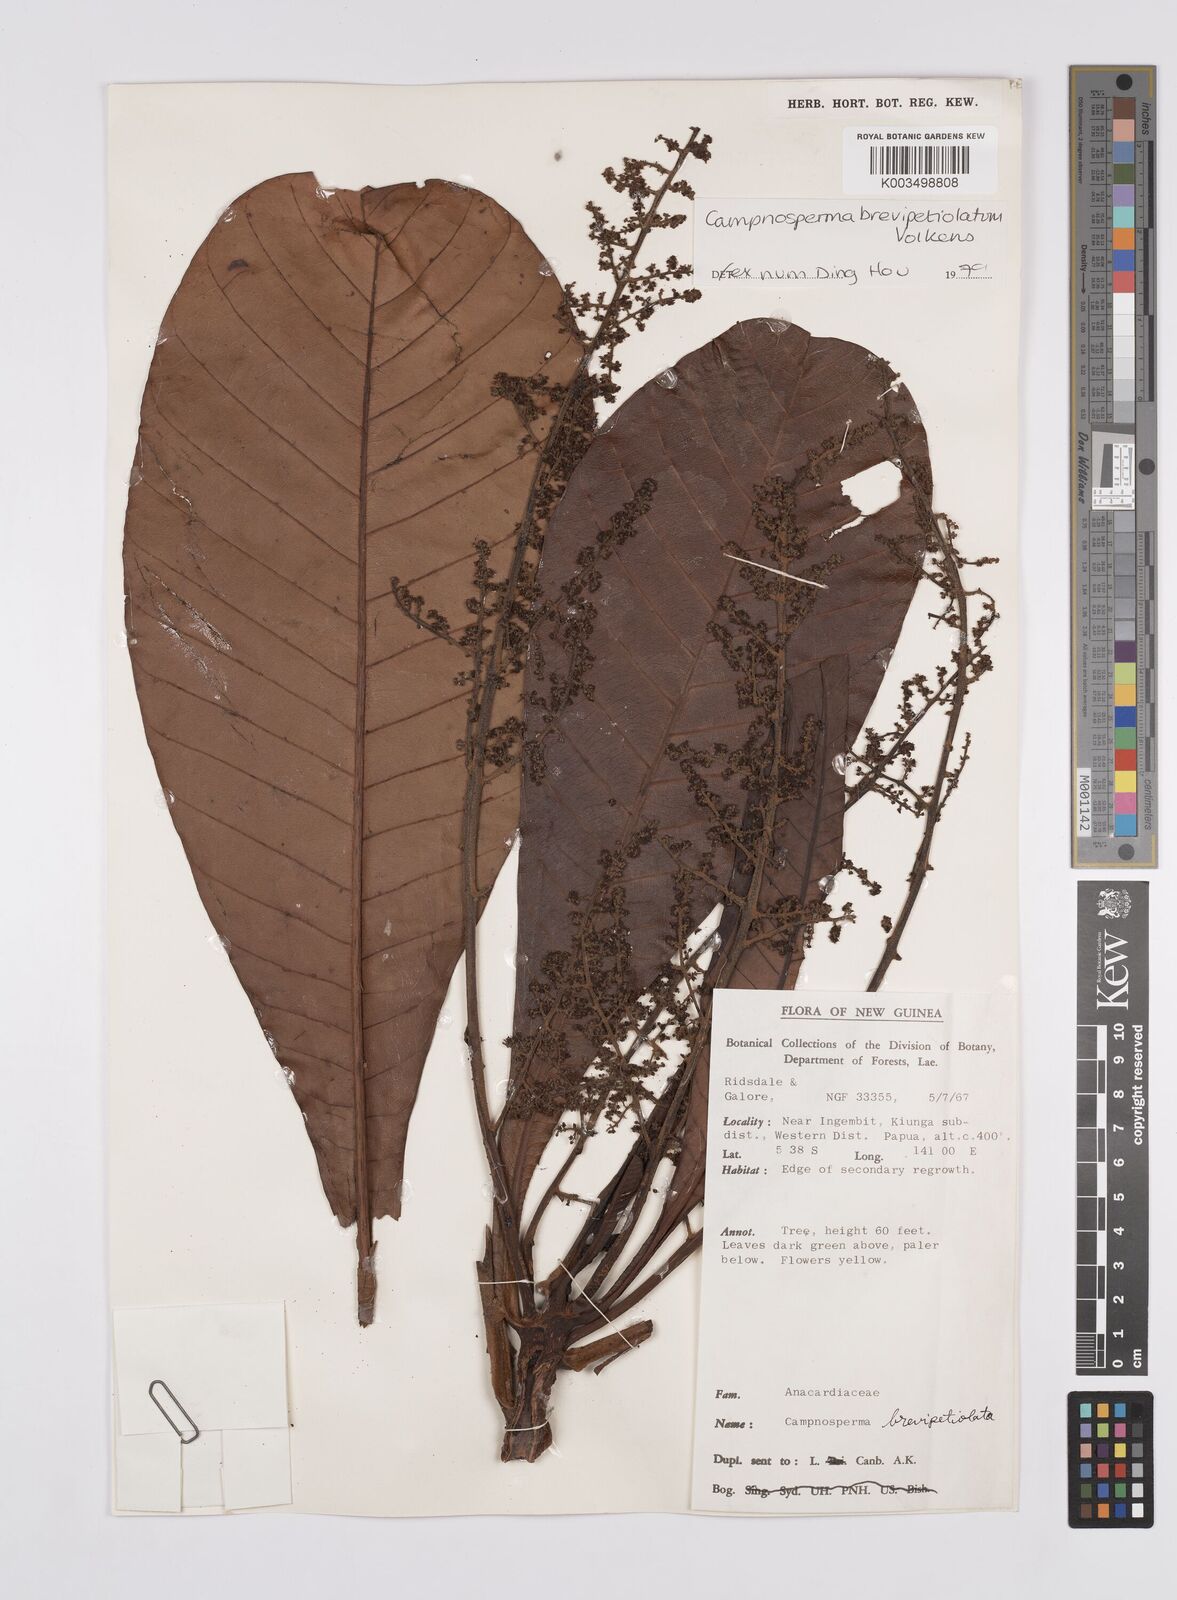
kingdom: Plantae
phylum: Tracheophyta
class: Magnoliopsida
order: Sapindales
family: Anacardiaceae
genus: Campnosperma
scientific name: Campnosperma brevipetiolatum
